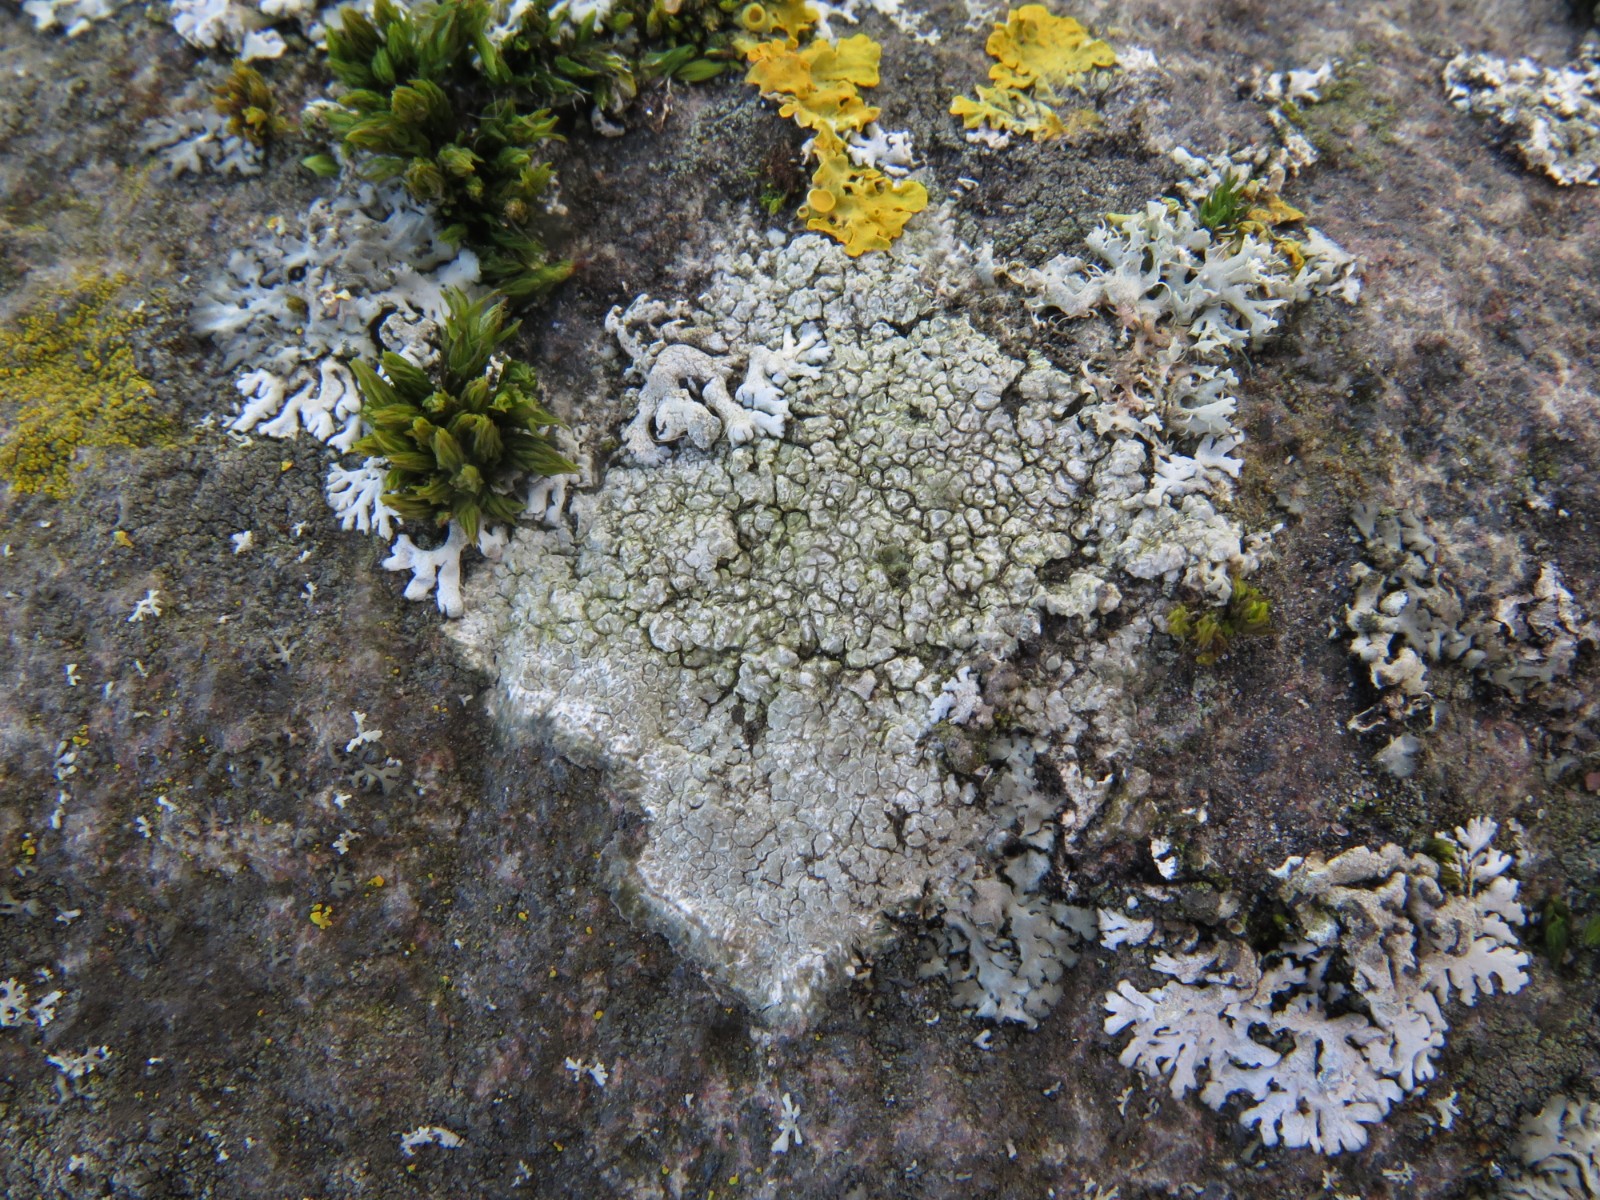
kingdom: Fungi
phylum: Ascomycota
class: Lecanoromycetes
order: Pertusariales
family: Pertusariaceae
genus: Pertusaria
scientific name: Pertusaria hymenea
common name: åben prikvortelav
